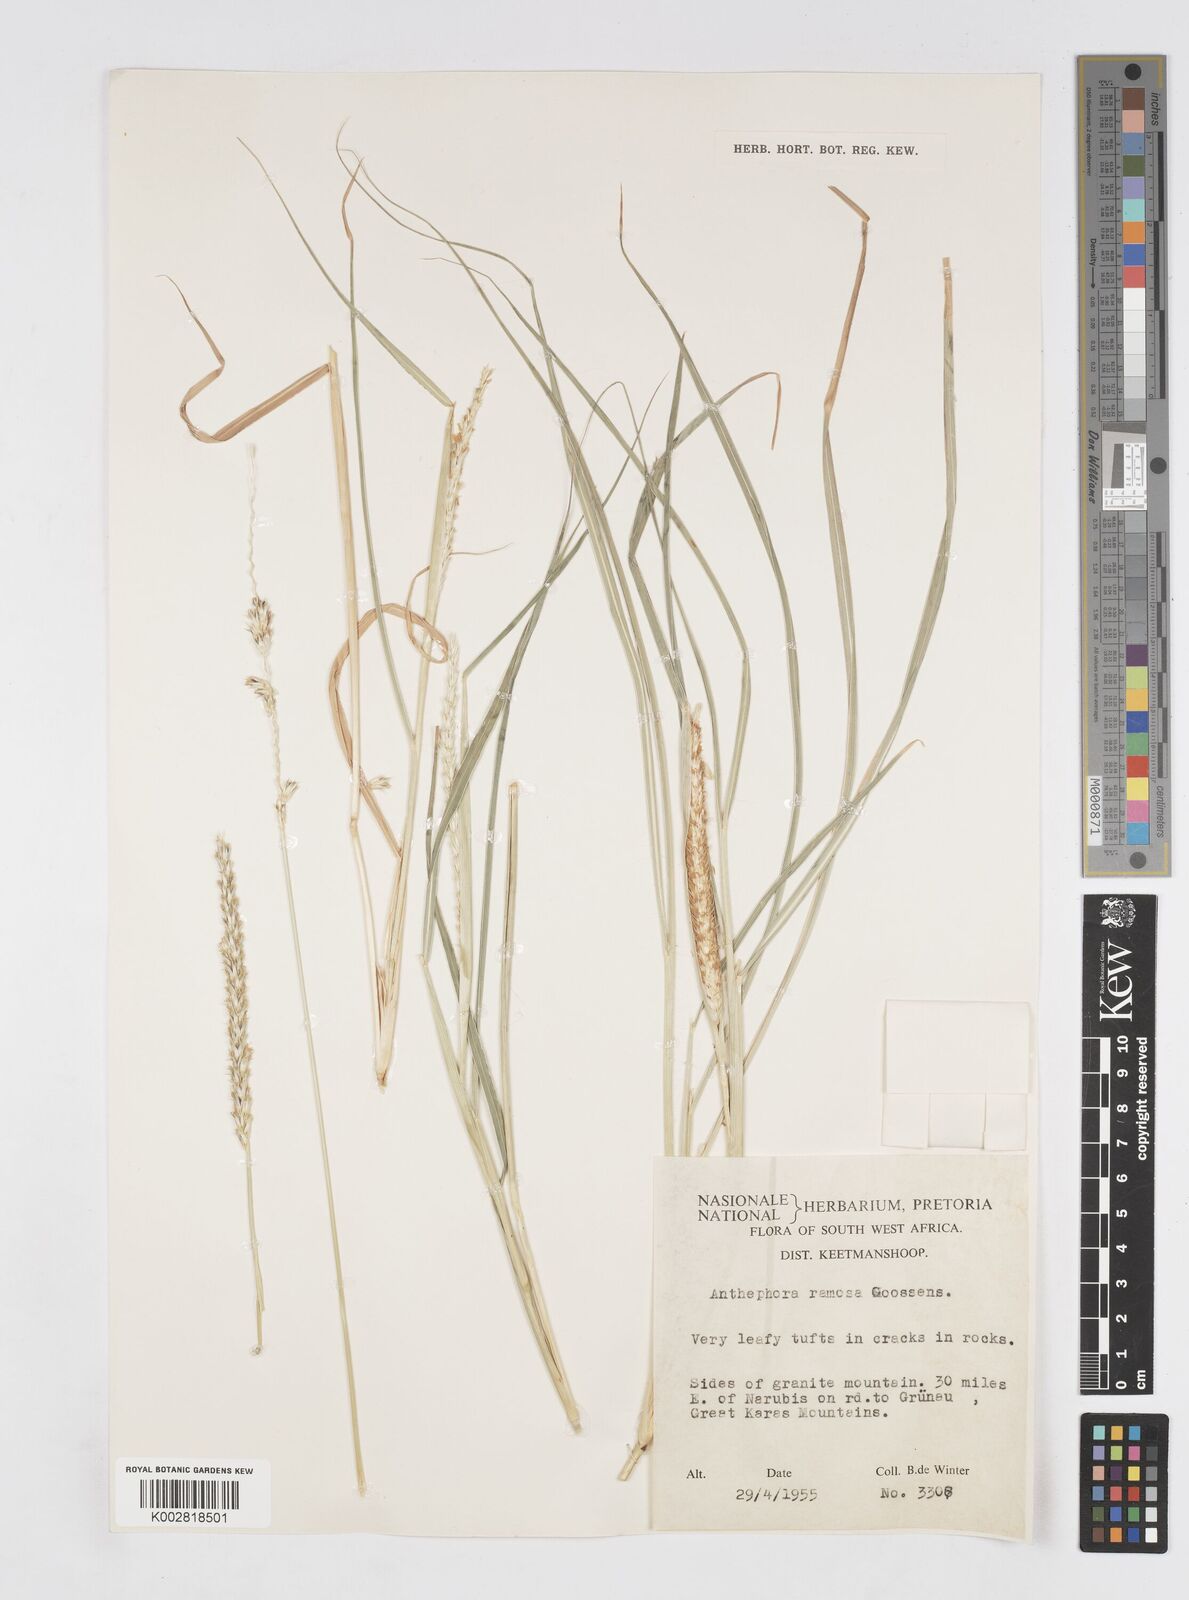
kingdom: Plantae
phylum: Tracheophyta
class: Liliopsida
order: Poales
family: Poaceae
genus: Anthephora
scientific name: Anthephora pubescens
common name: Wool grass
